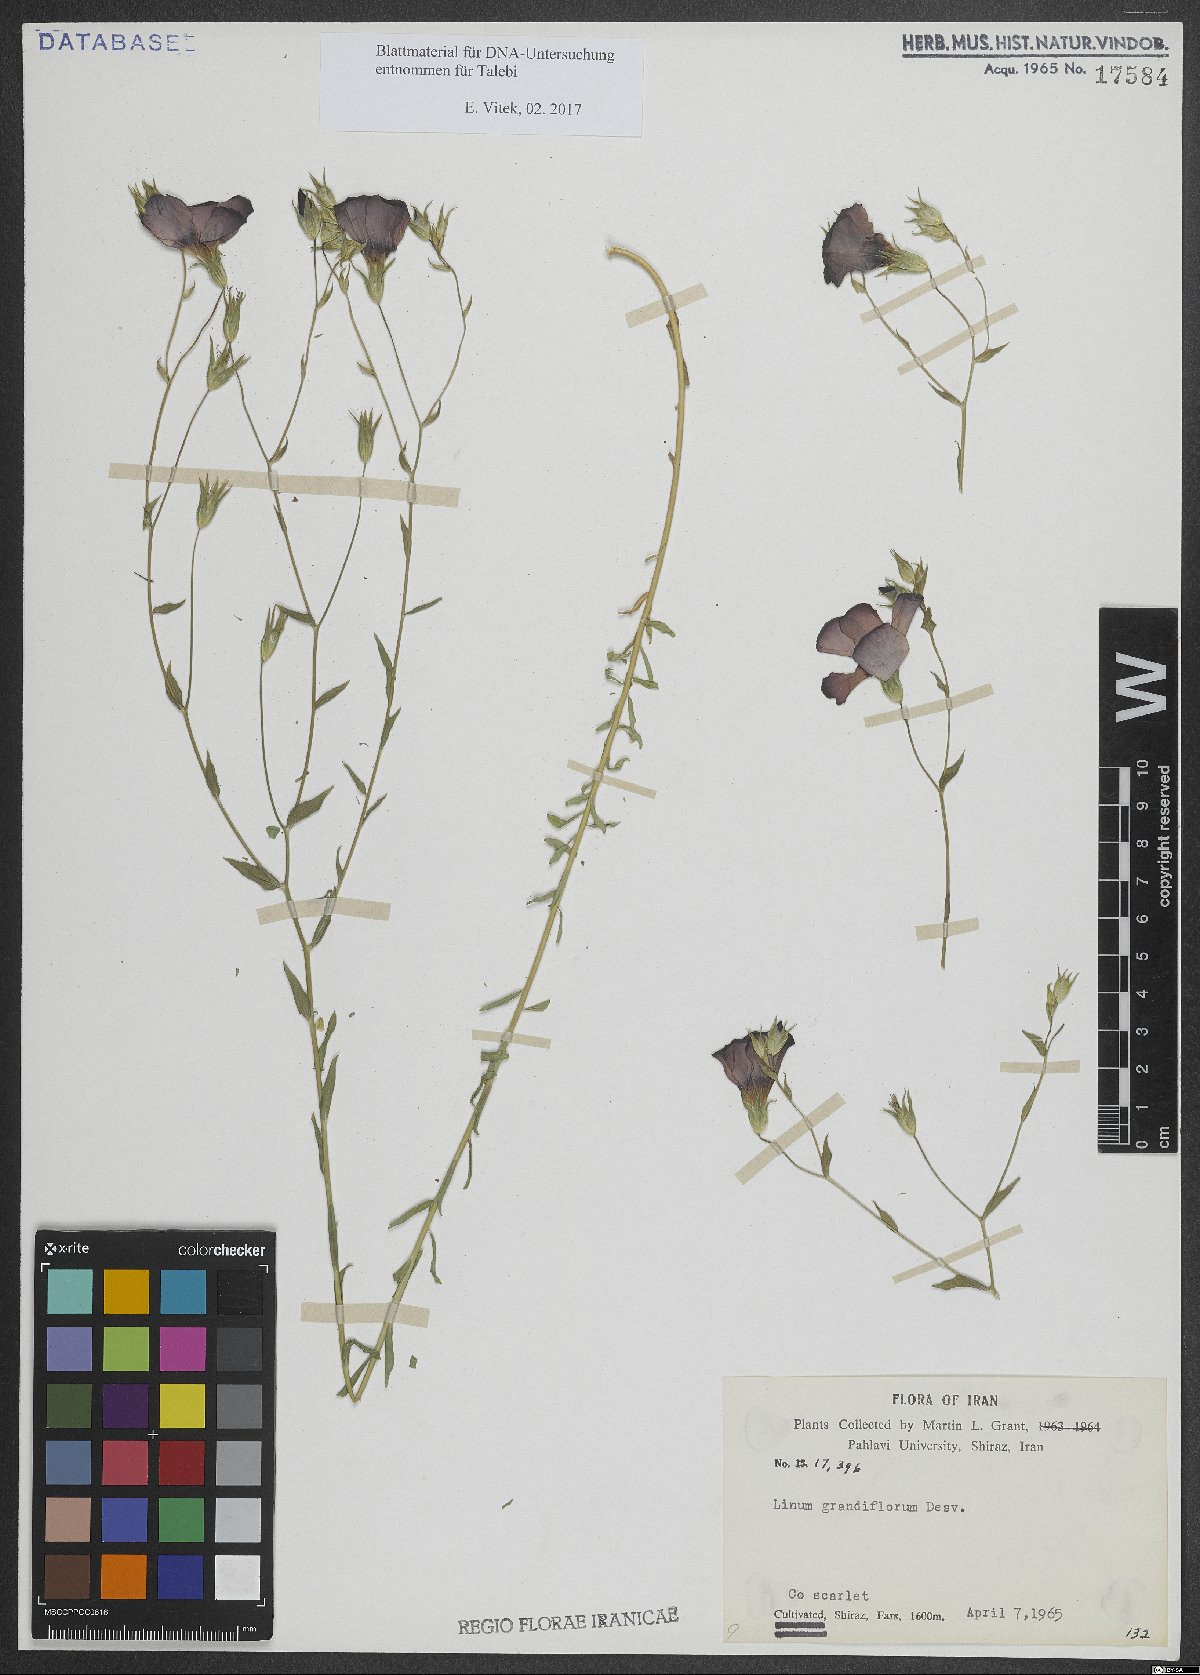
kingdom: Plantae
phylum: Tracheophyta
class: Magnoliopsida
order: Malpighiales
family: Linaceae
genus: Linum
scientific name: Linum grandiflorum
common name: Crimson flax
